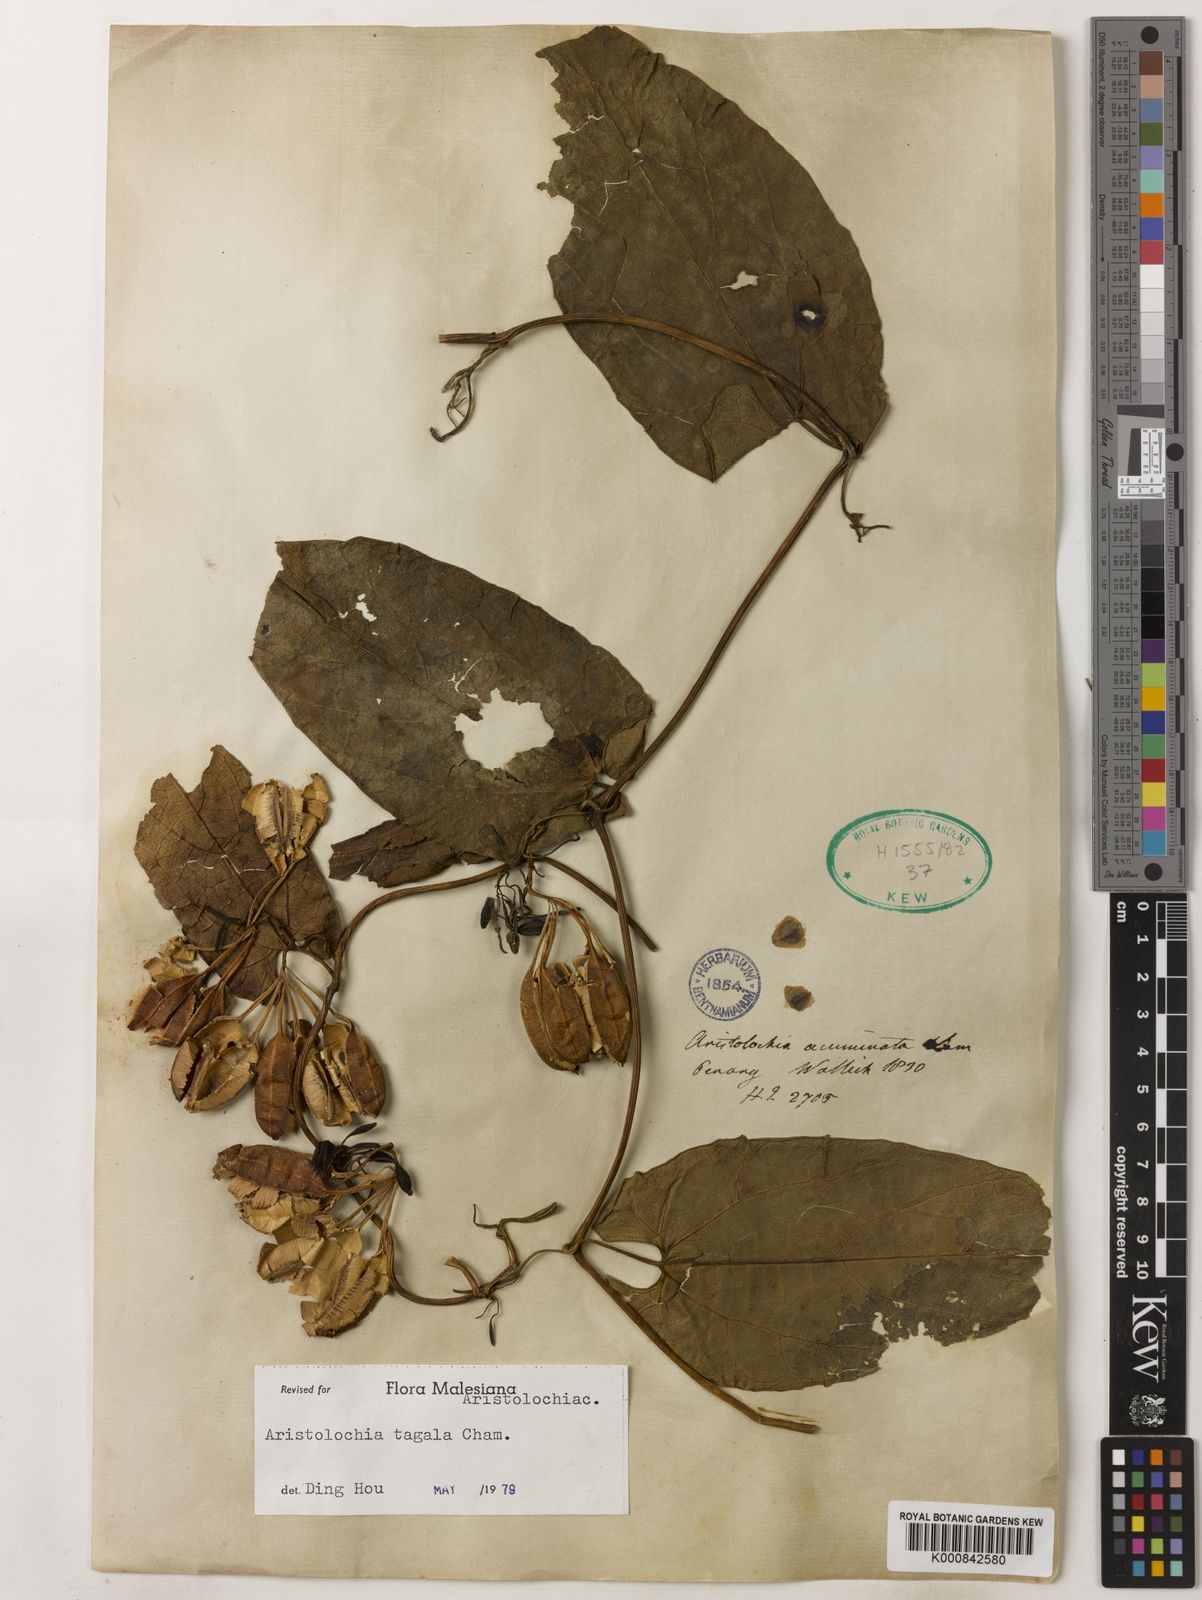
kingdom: Plantae
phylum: Tracheophyta
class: Magnoliopsida
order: Piperales
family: Aristolochiaceae
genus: Aristolochia
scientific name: Aristolochia acuminata
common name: Indian birthwort
